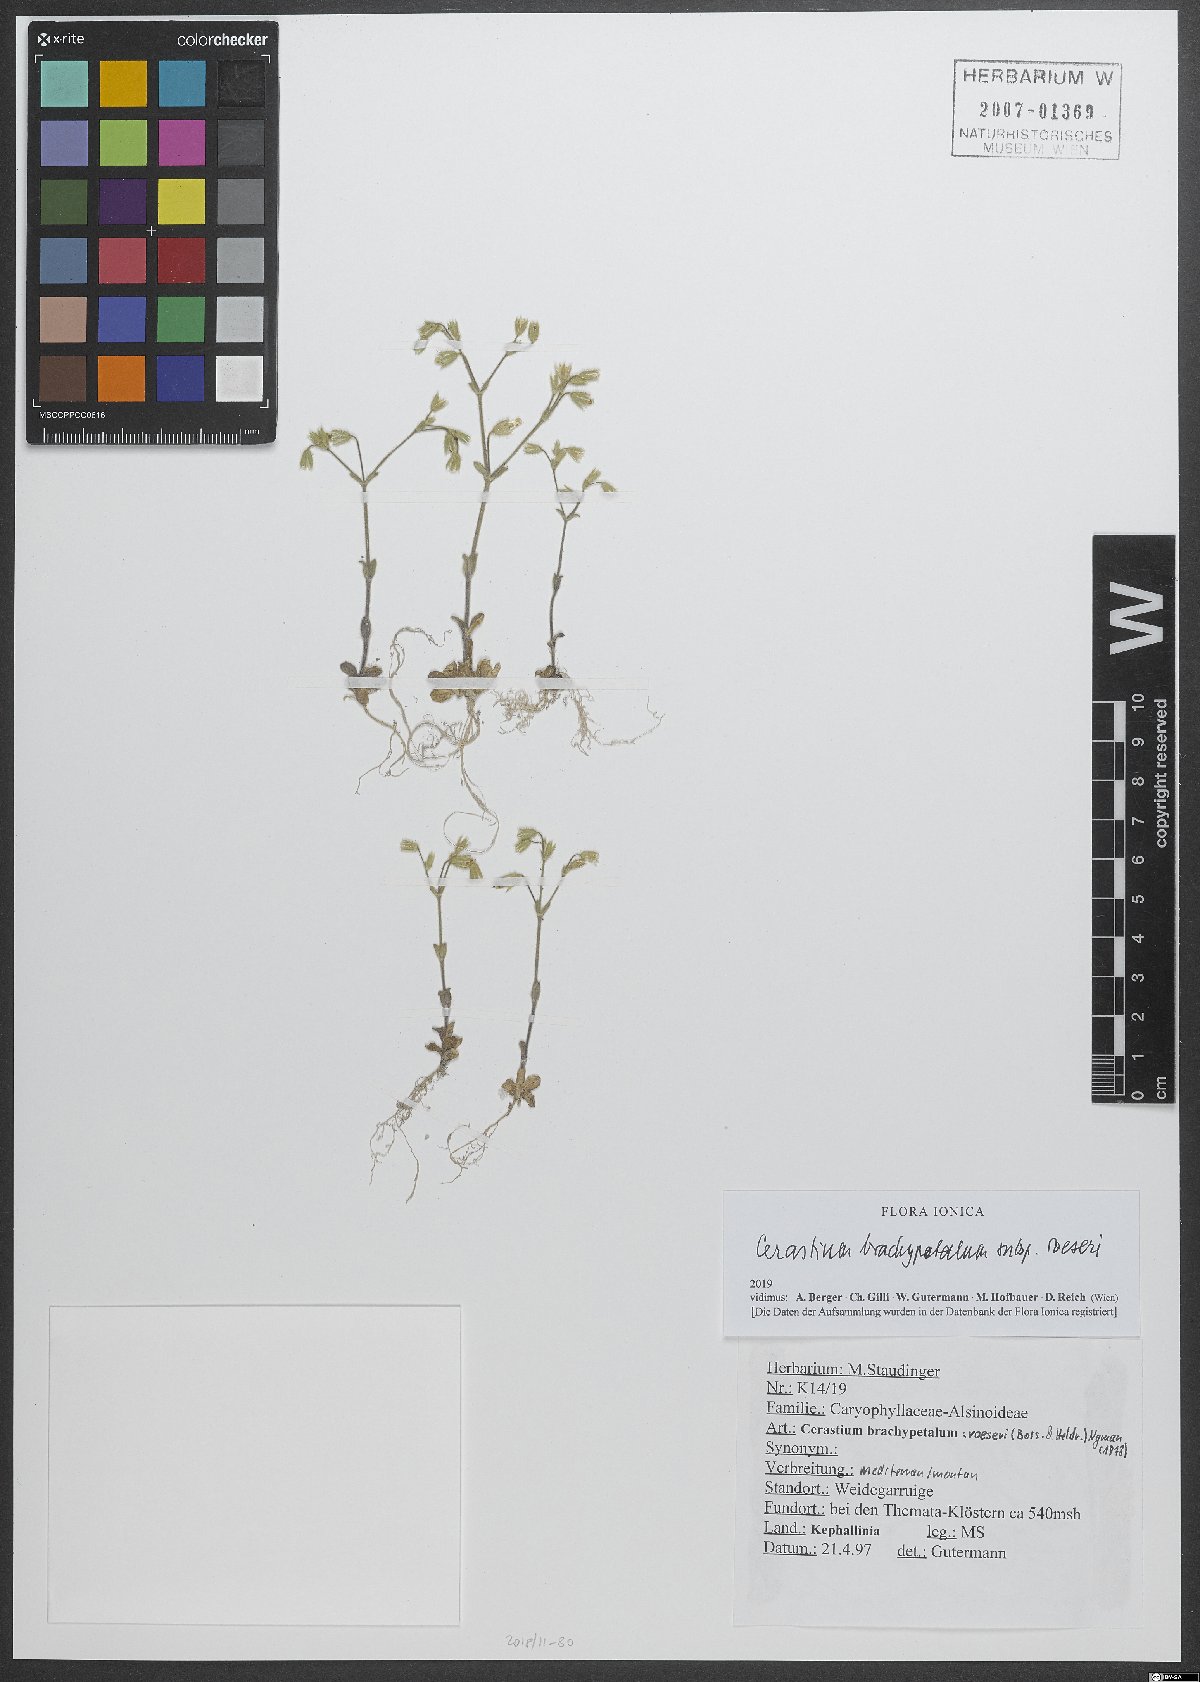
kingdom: Plantae
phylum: Tracheophyta
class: Magnoliopsida
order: Caryophyllales
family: Caryophyllaceae
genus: Cerastium
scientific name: Cerastium brachypetalum
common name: Grey mouse-ear
